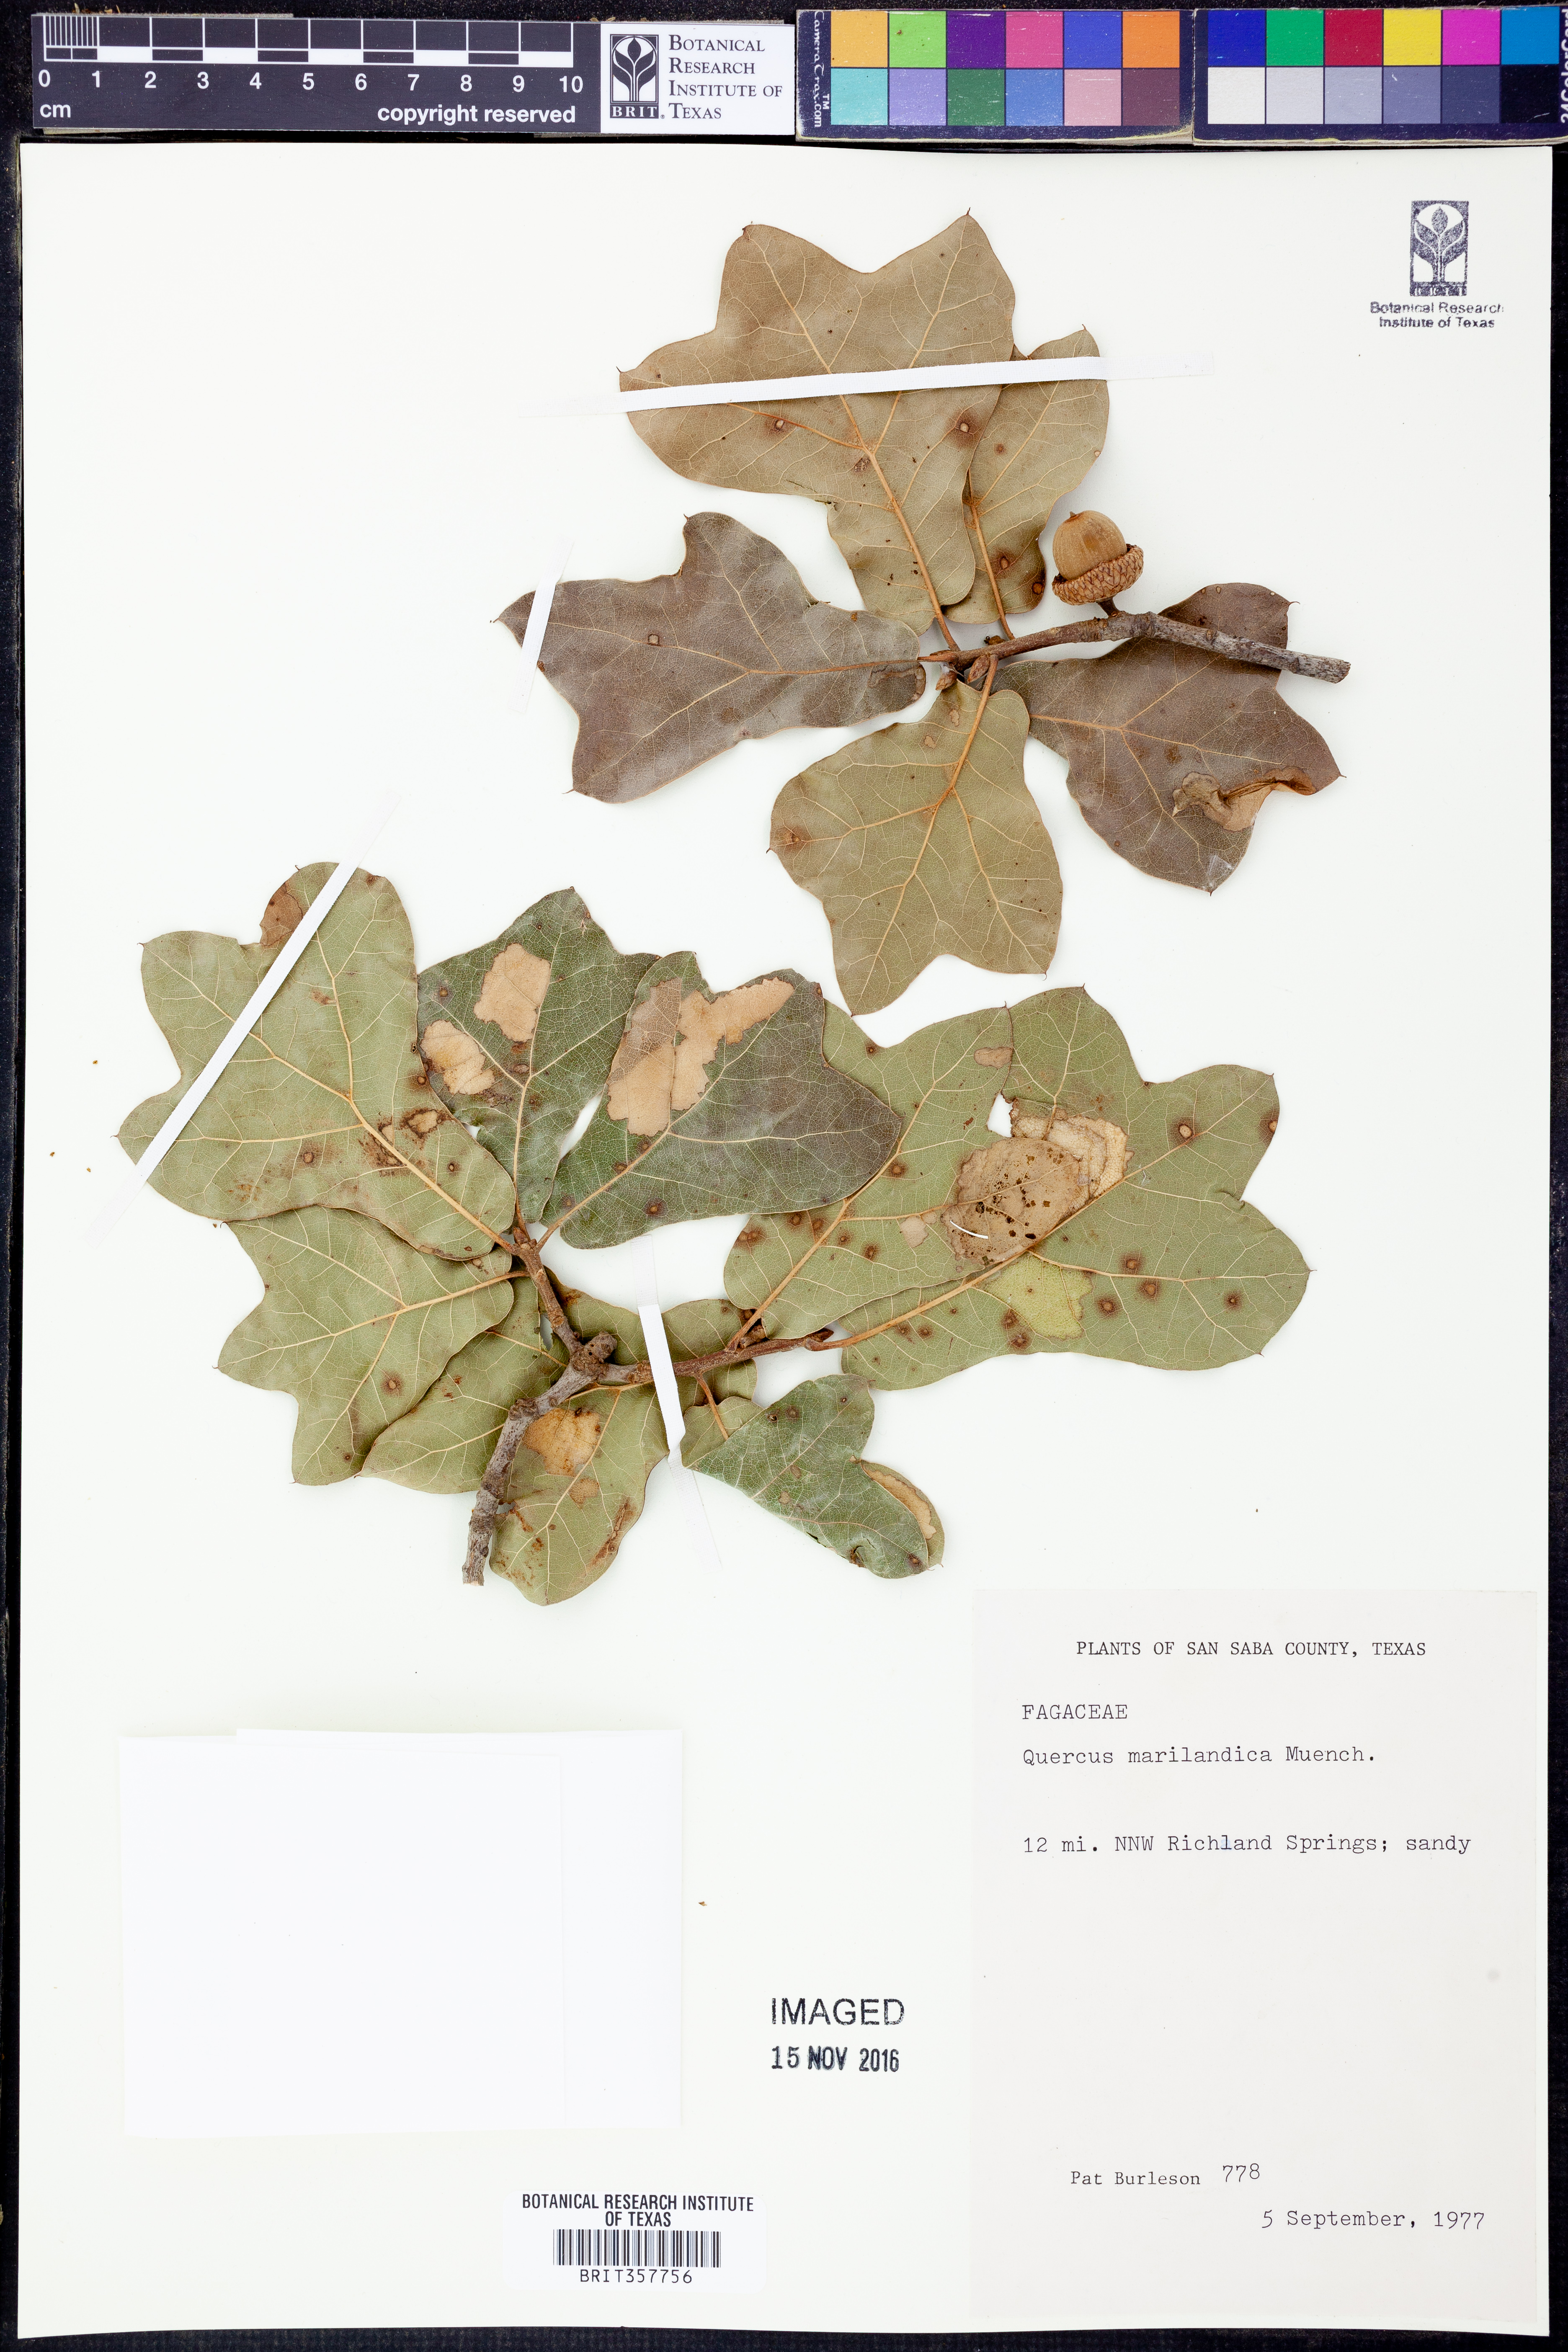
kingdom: Plantae
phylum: Tracheophyta
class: Magnoliopsida
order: Fagales
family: Fagaceae
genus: Quercus
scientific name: Quercus marilandica
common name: Blackjack oak
